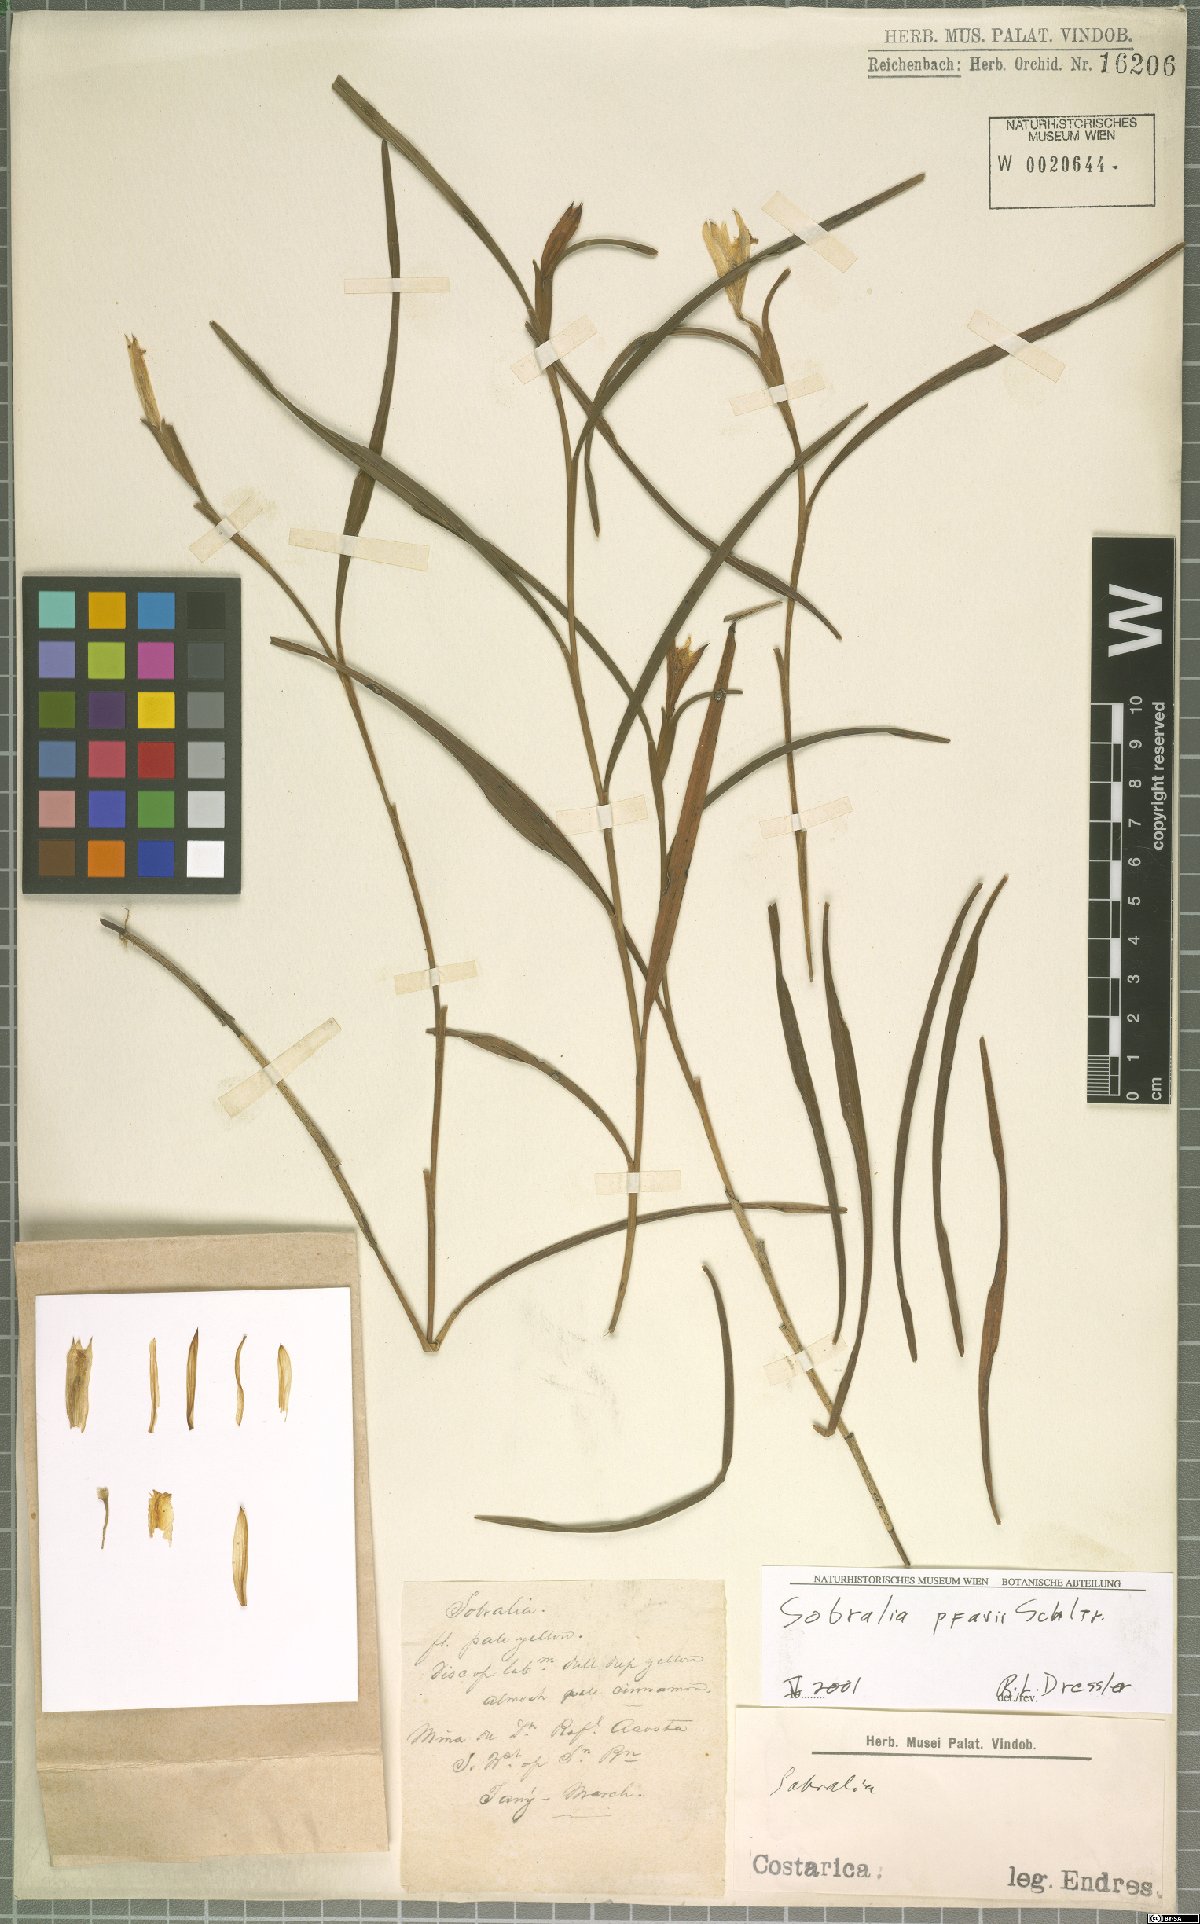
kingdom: Plantae
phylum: Tracheophyta
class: Liliopsida
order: Asparagales
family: Orchidaceae
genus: Sobralia
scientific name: Sobralia pfavii
